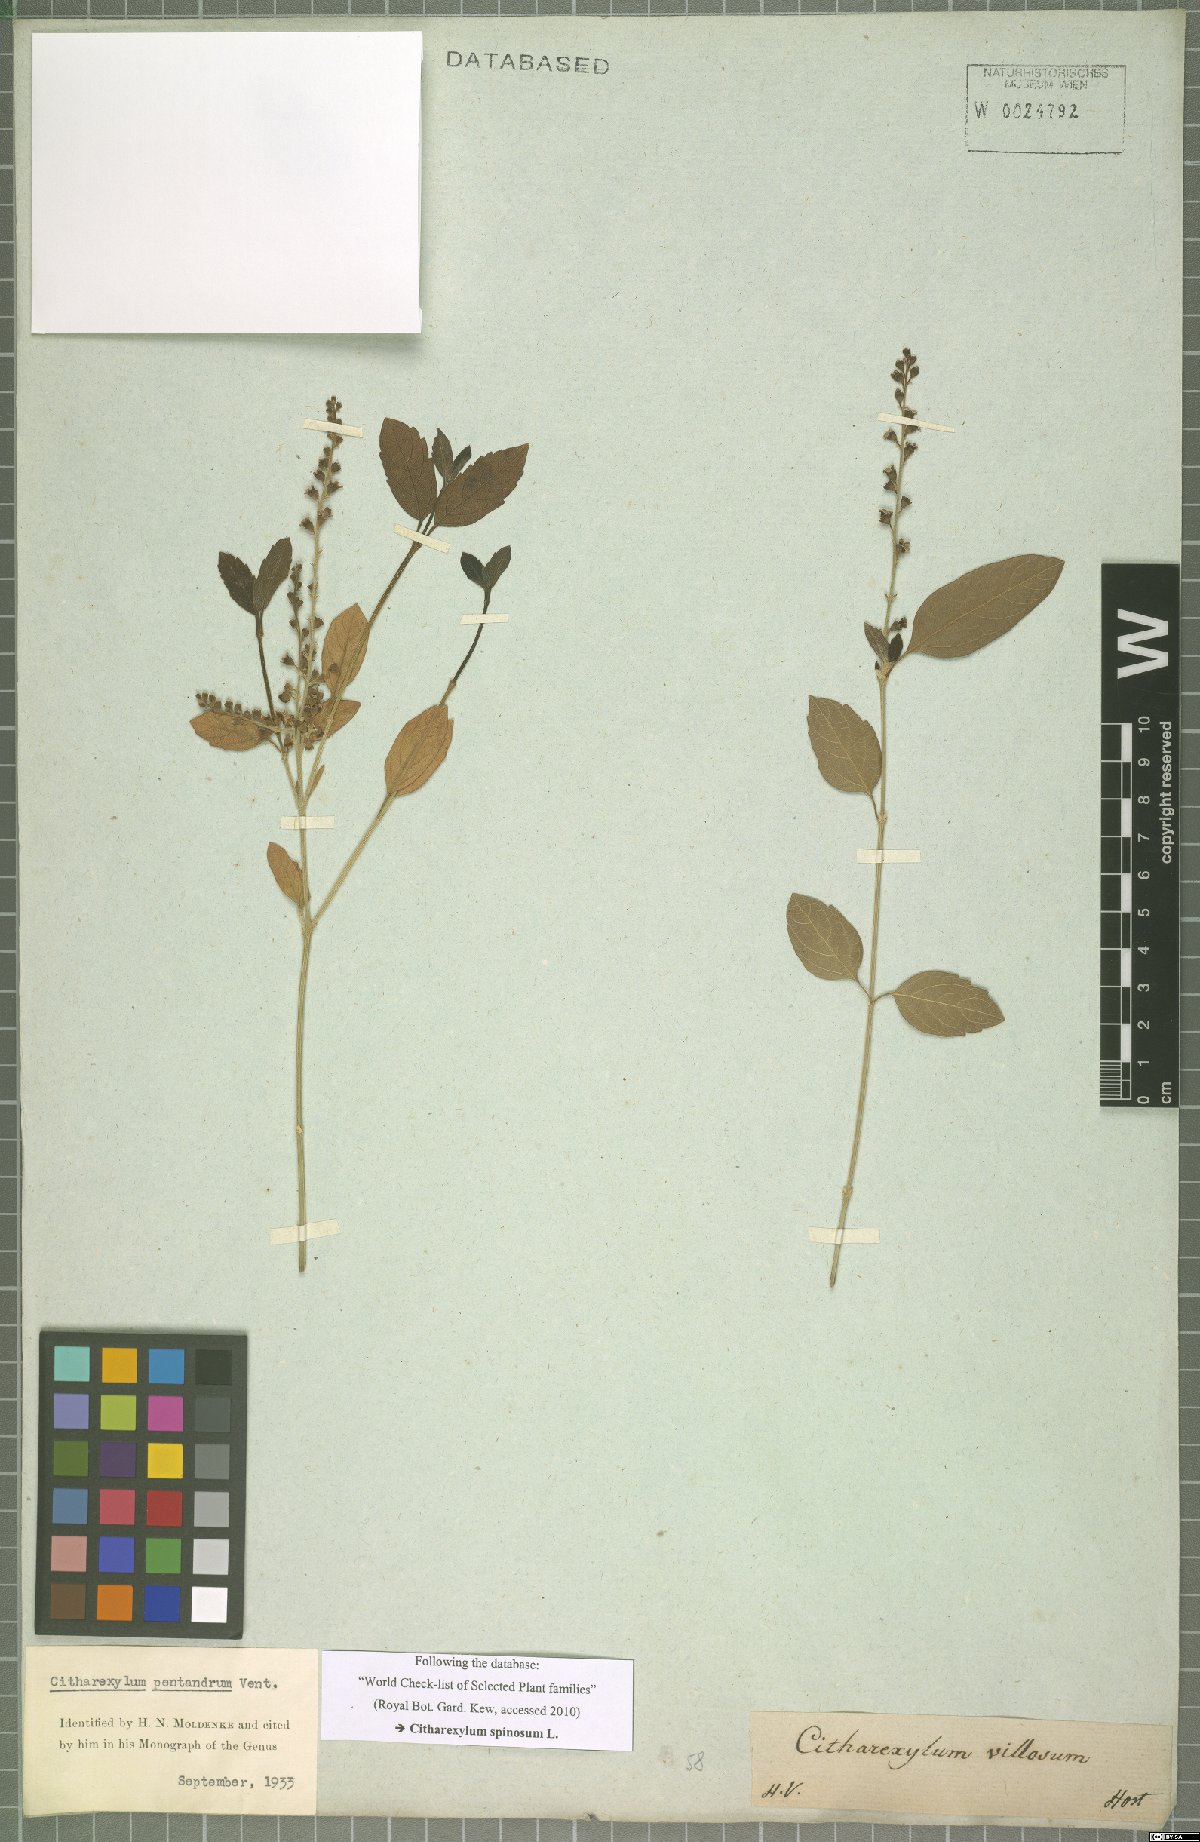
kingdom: Plantae
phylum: Tracheophyta
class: Magnoliopsida
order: Lamiales
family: Verbenaceae
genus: Citharexylum
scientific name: Citharexylum spinosum
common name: Fiddlewood
